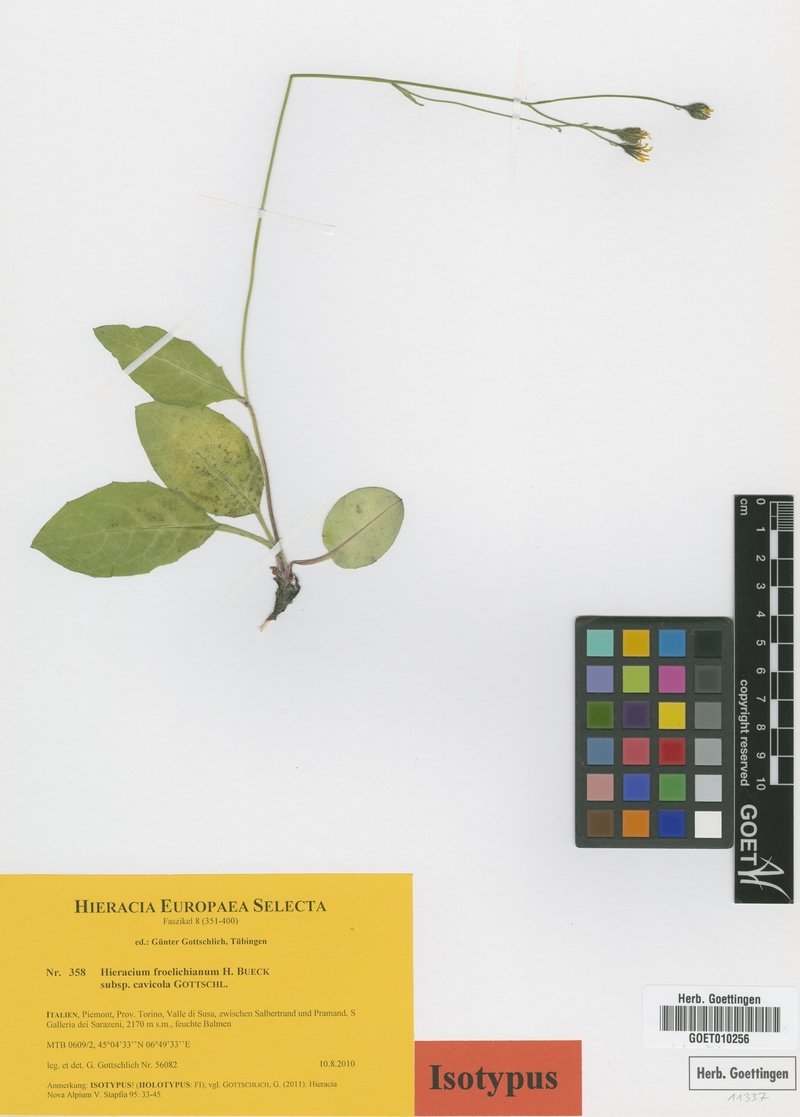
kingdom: Plantae
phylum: Tracheophyta
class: Magnoliopsida
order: Asterales
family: Asteraceae
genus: Hieracium
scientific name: Hieracium froelichianum
